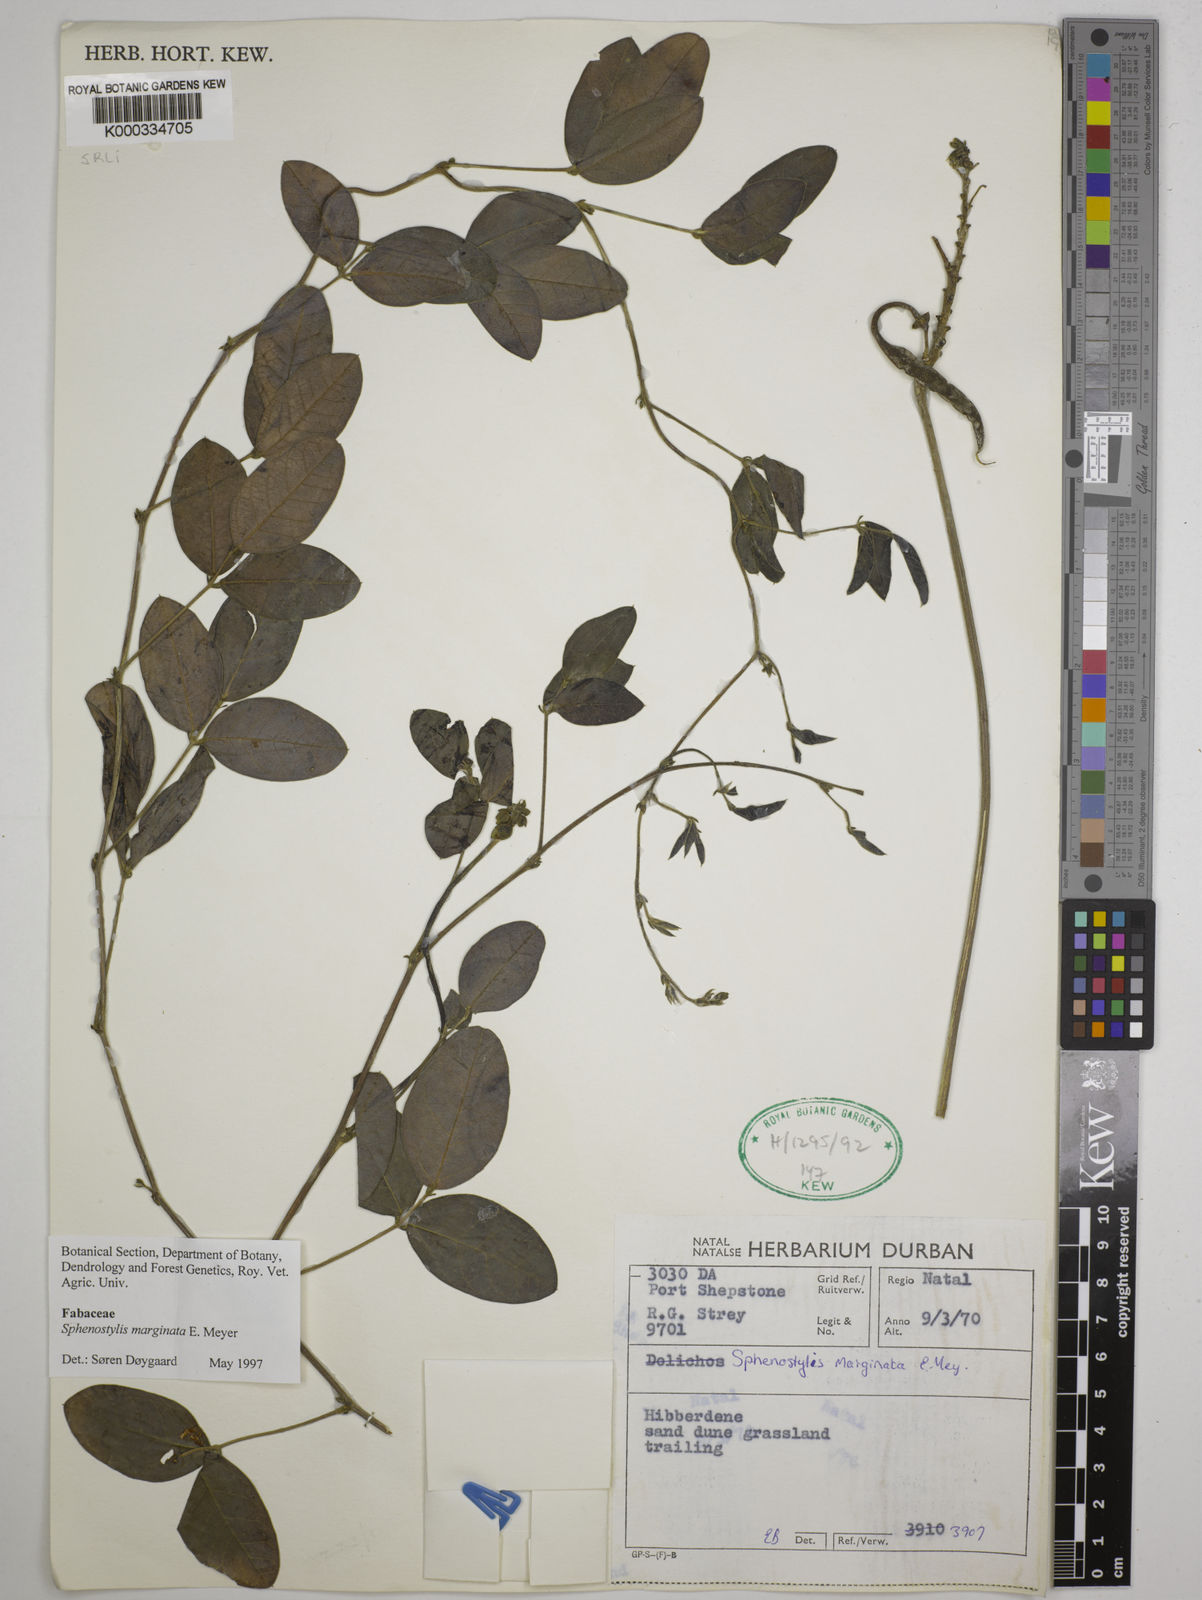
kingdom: Plantae
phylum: Tracheophyta
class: Magnoliopsida
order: Fabales
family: Fabaceae
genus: Sphenostylis
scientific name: Sphenostylis marginata
